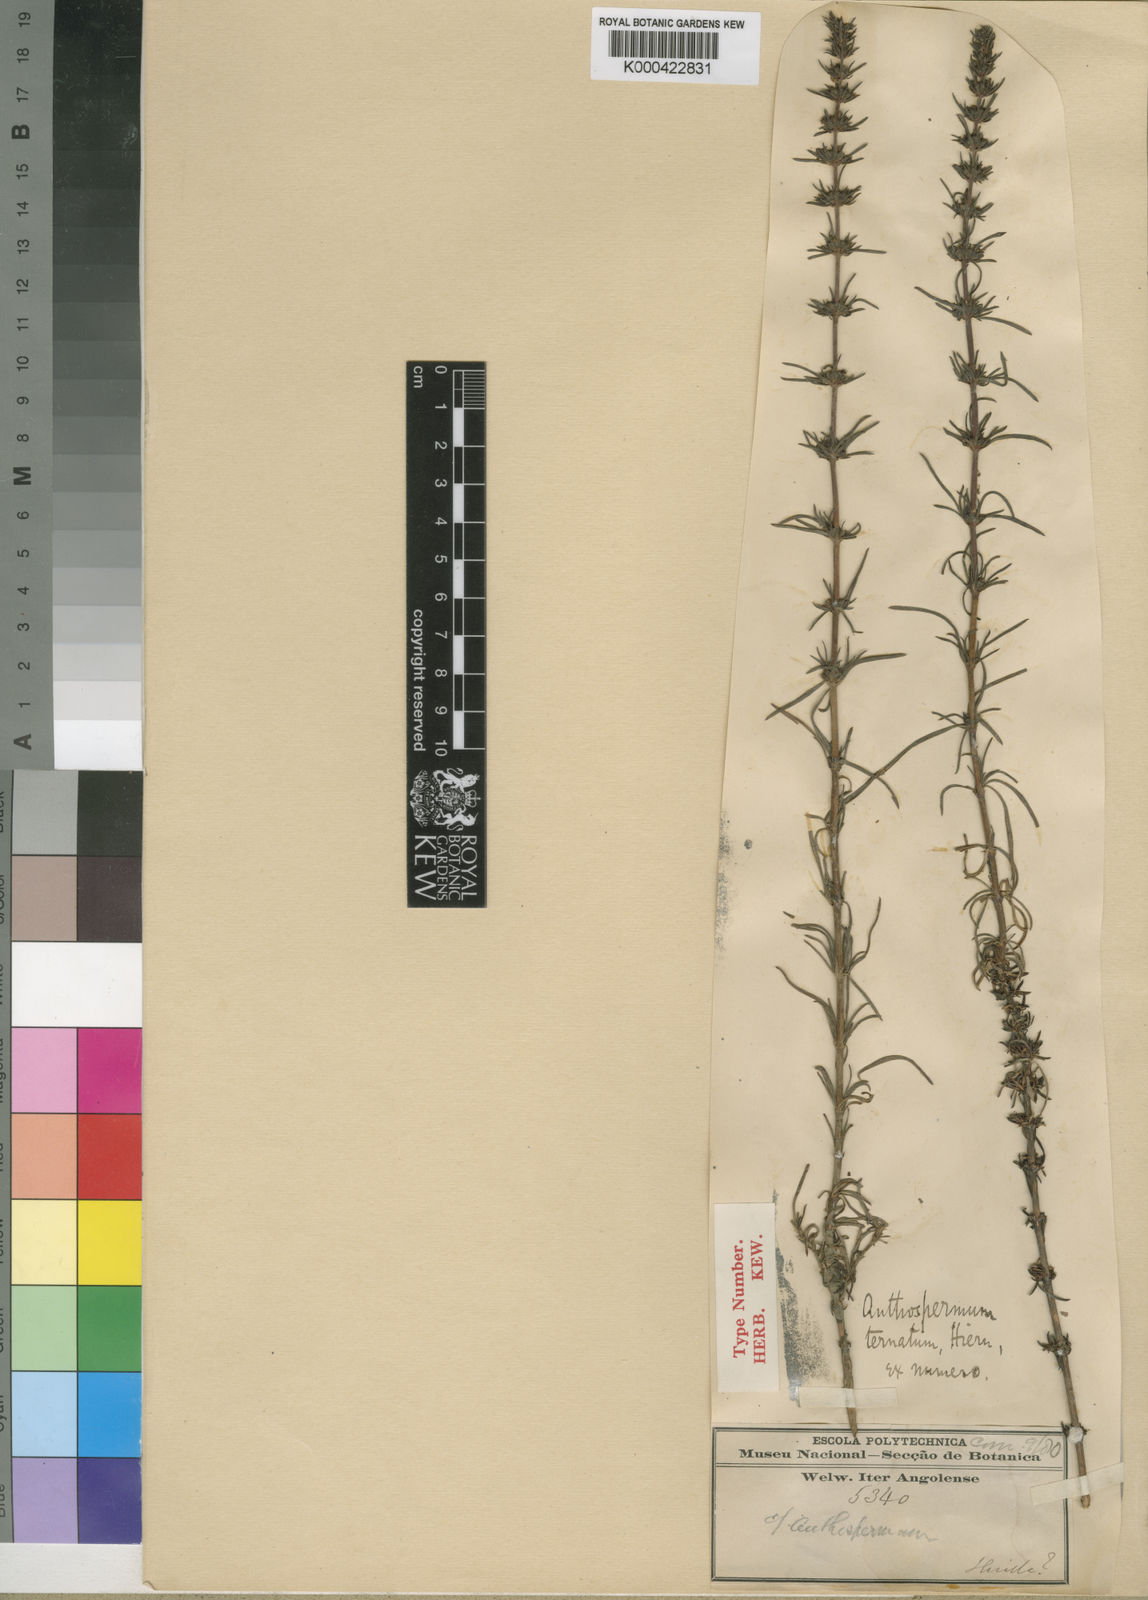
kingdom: Plantae
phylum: Tracheophyta
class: Magnoliopsida
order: Gentianales
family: Rubiaceae
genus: Anthospermum
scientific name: Anthospermum ternatum
